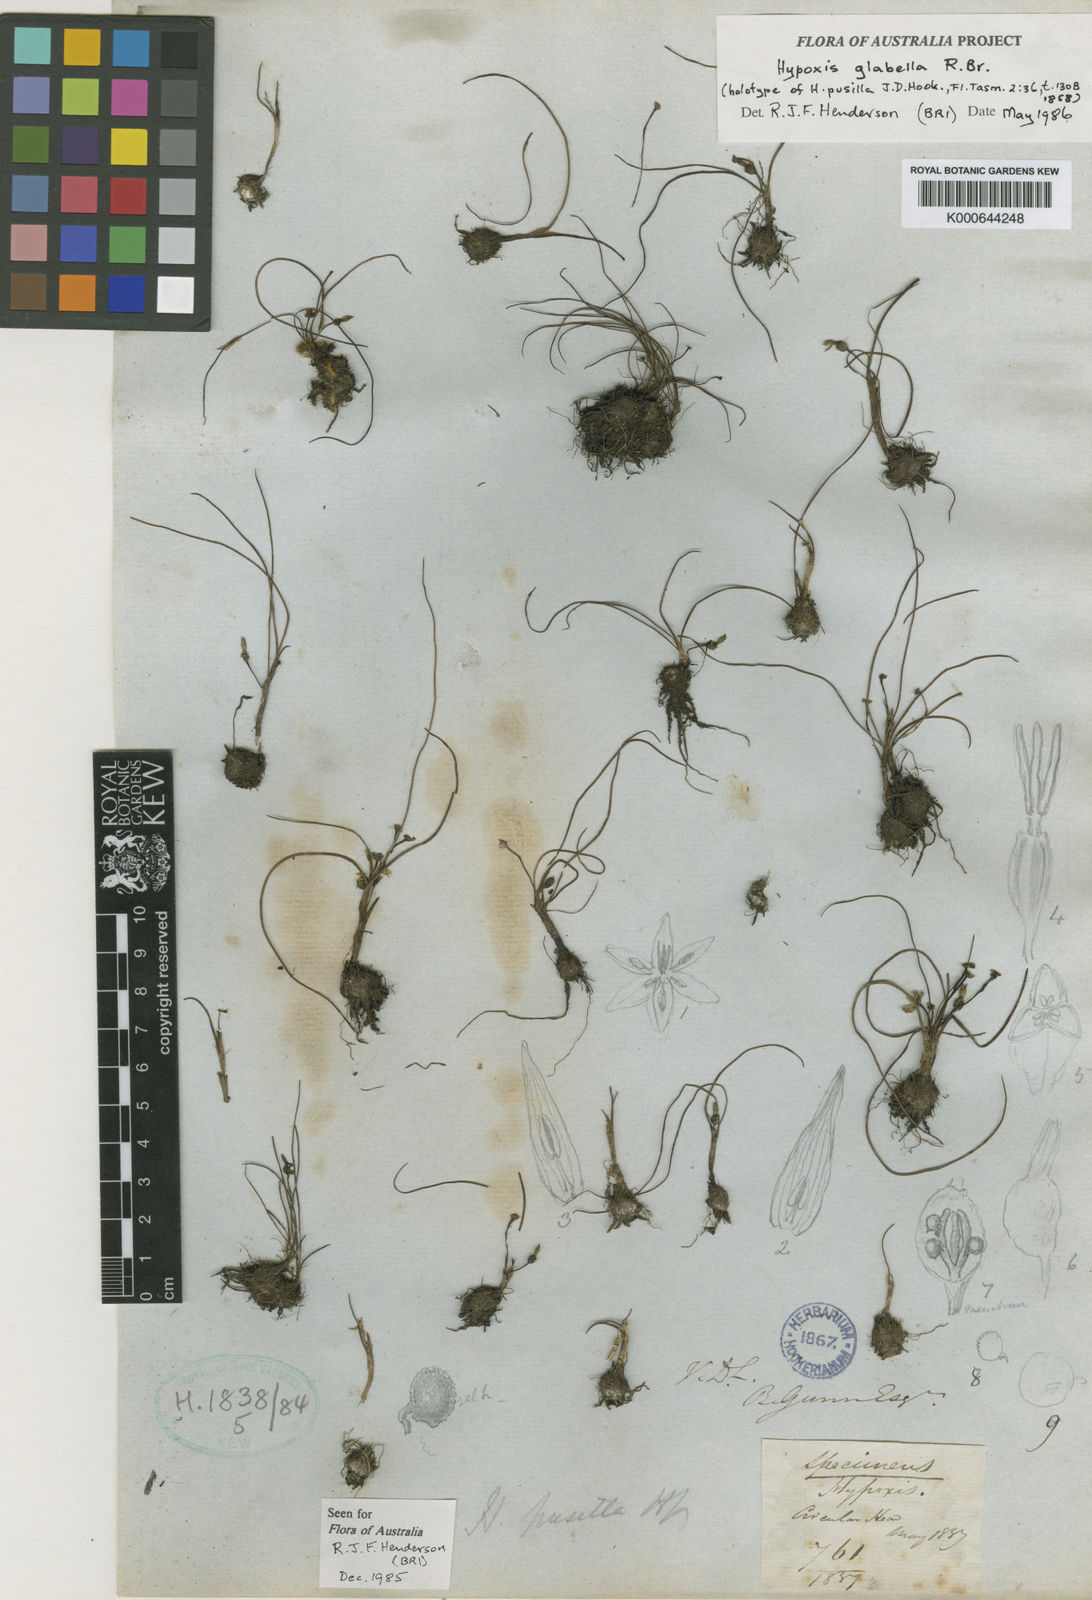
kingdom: Plantae
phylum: Tracheophyta
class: Liliopsida
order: Asparagales
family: Hypoxidaceae
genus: Pauridia
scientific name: Pauridia glabella
